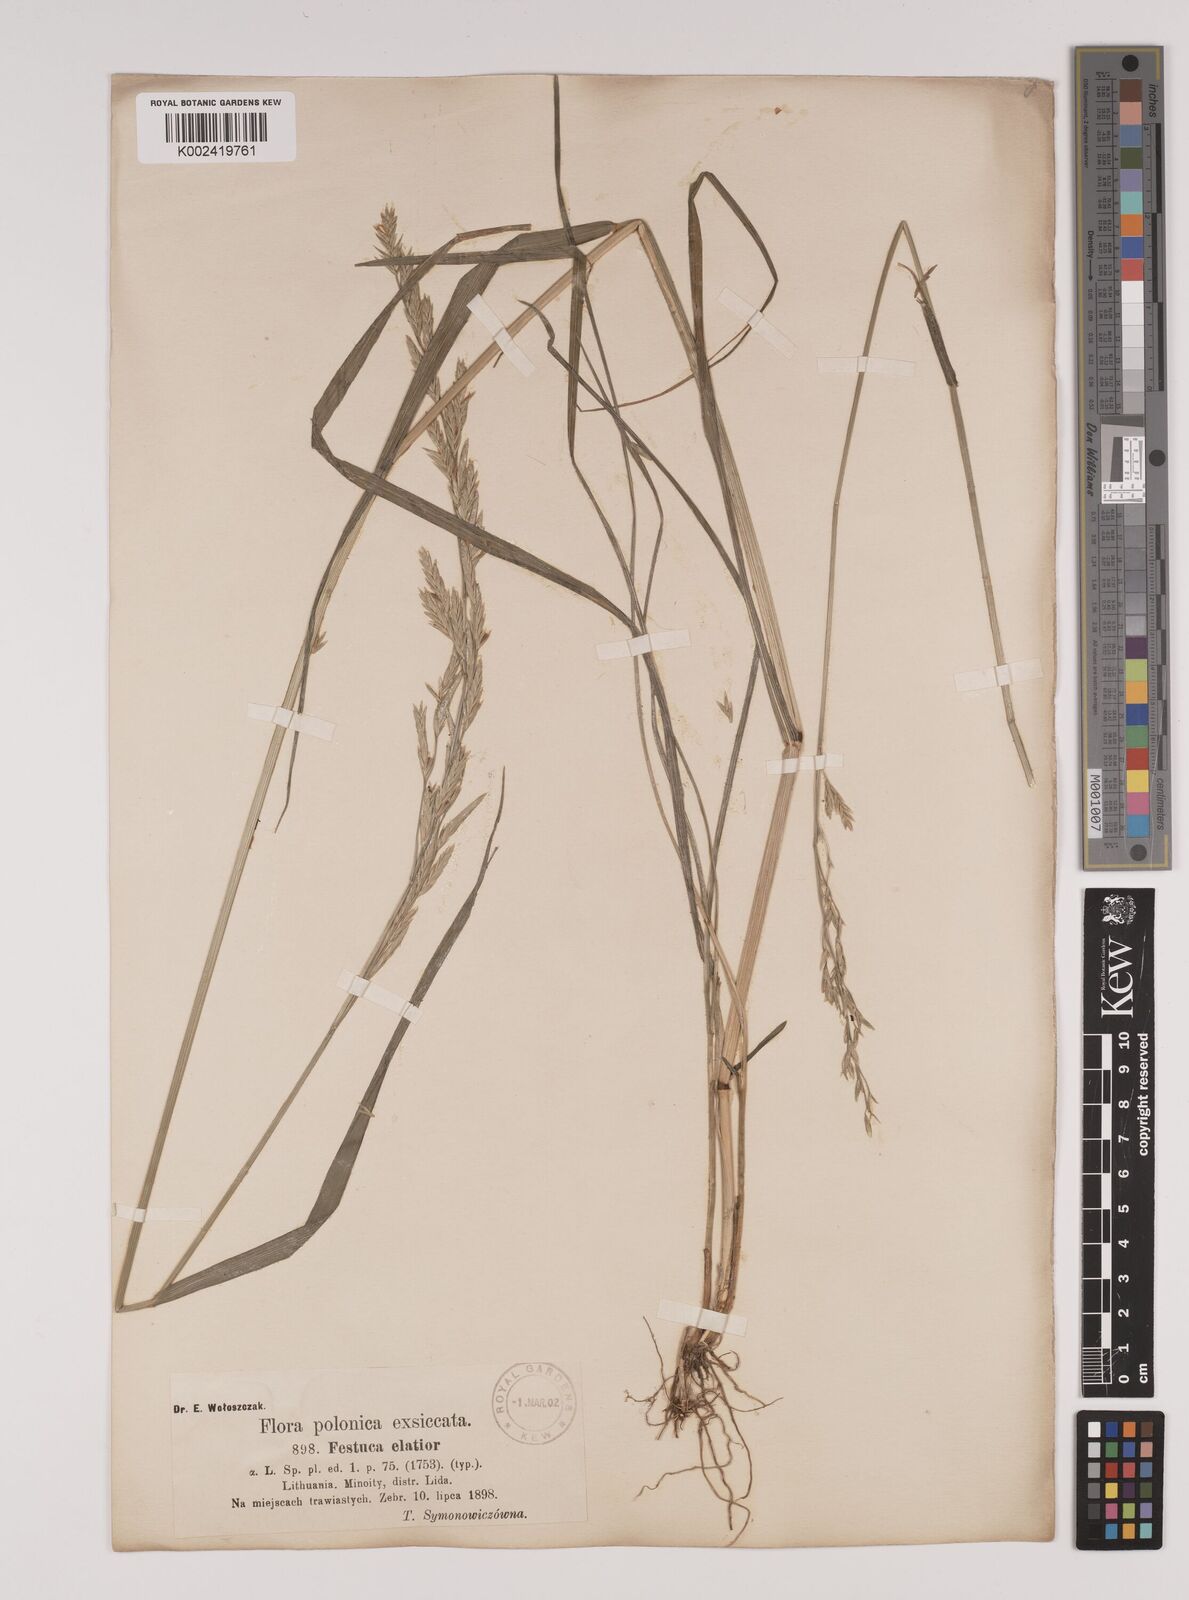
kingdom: Plantae
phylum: Tracheophyta
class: Liliopsida
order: Poales
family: Poaceae
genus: Lolium
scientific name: Lolium pratense
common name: Dover grass
